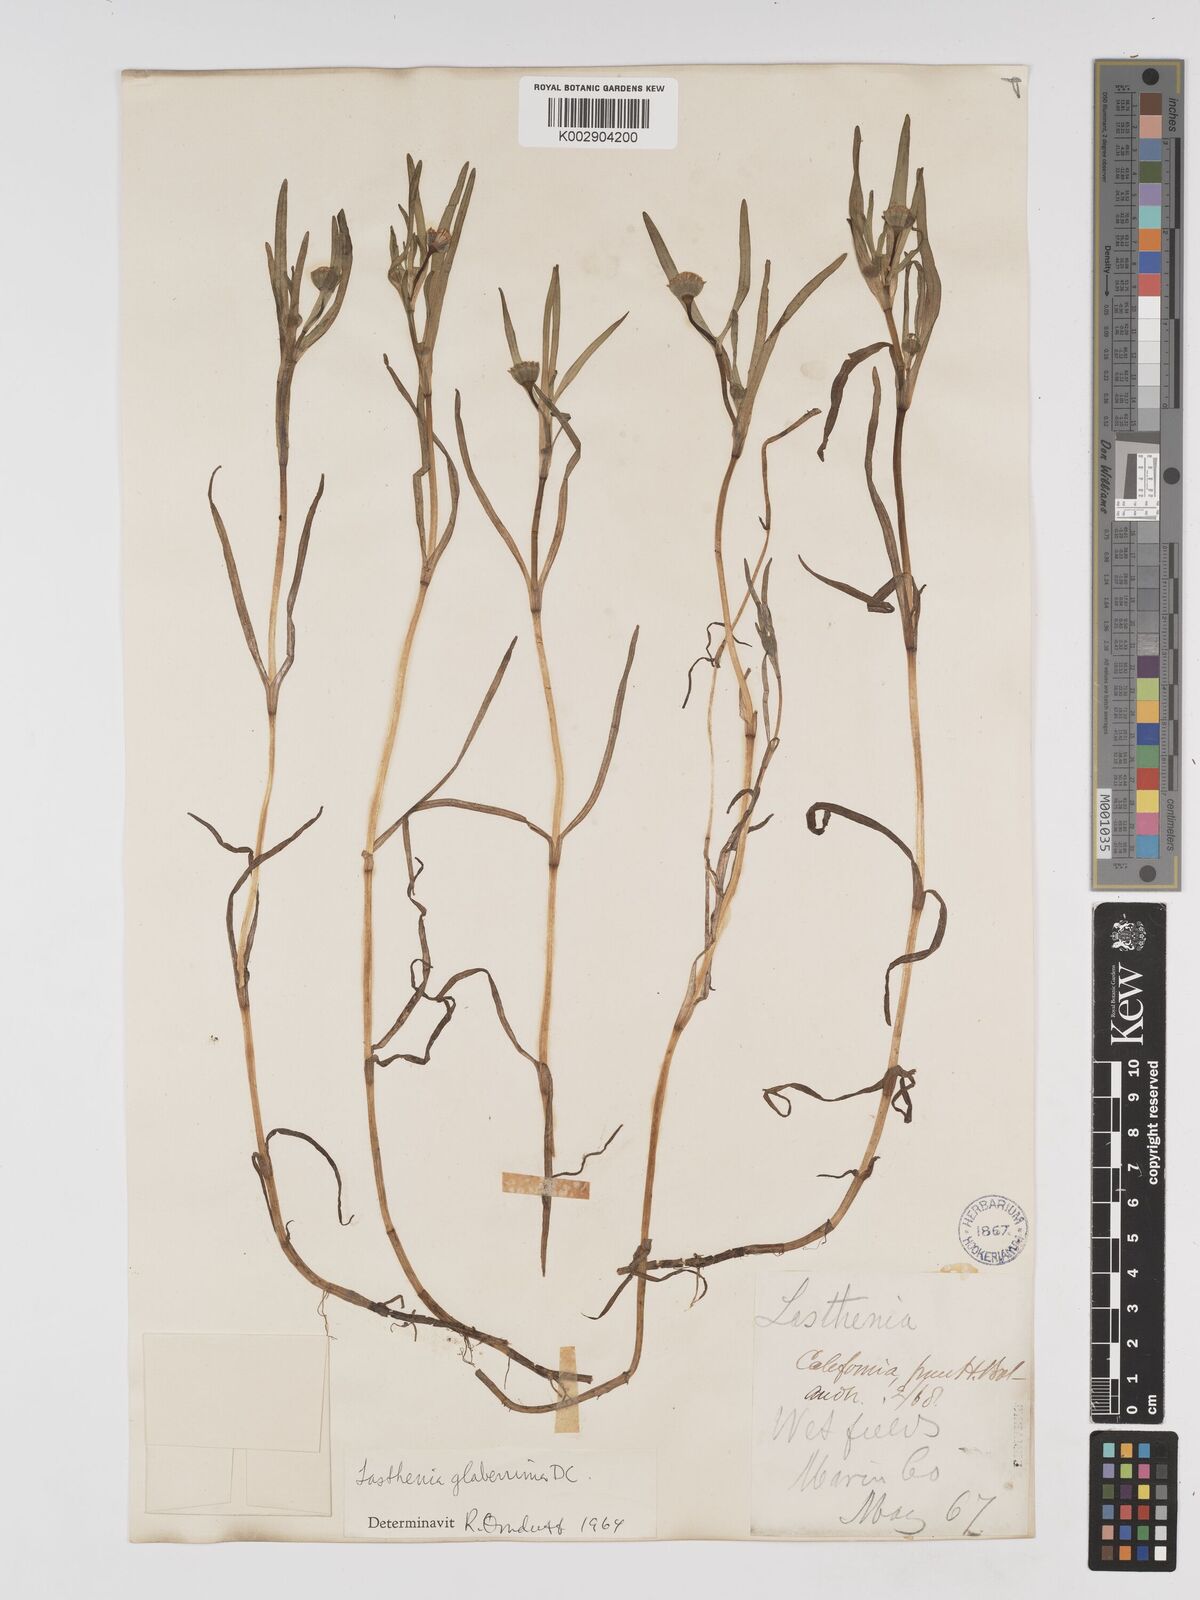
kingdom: Plantae
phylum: Tracheophyta
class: Magnoliopsida
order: Asterales
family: Asteraceae
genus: Lasthenia
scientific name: Lasthenia glaberrima
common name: Smooth goldfields
